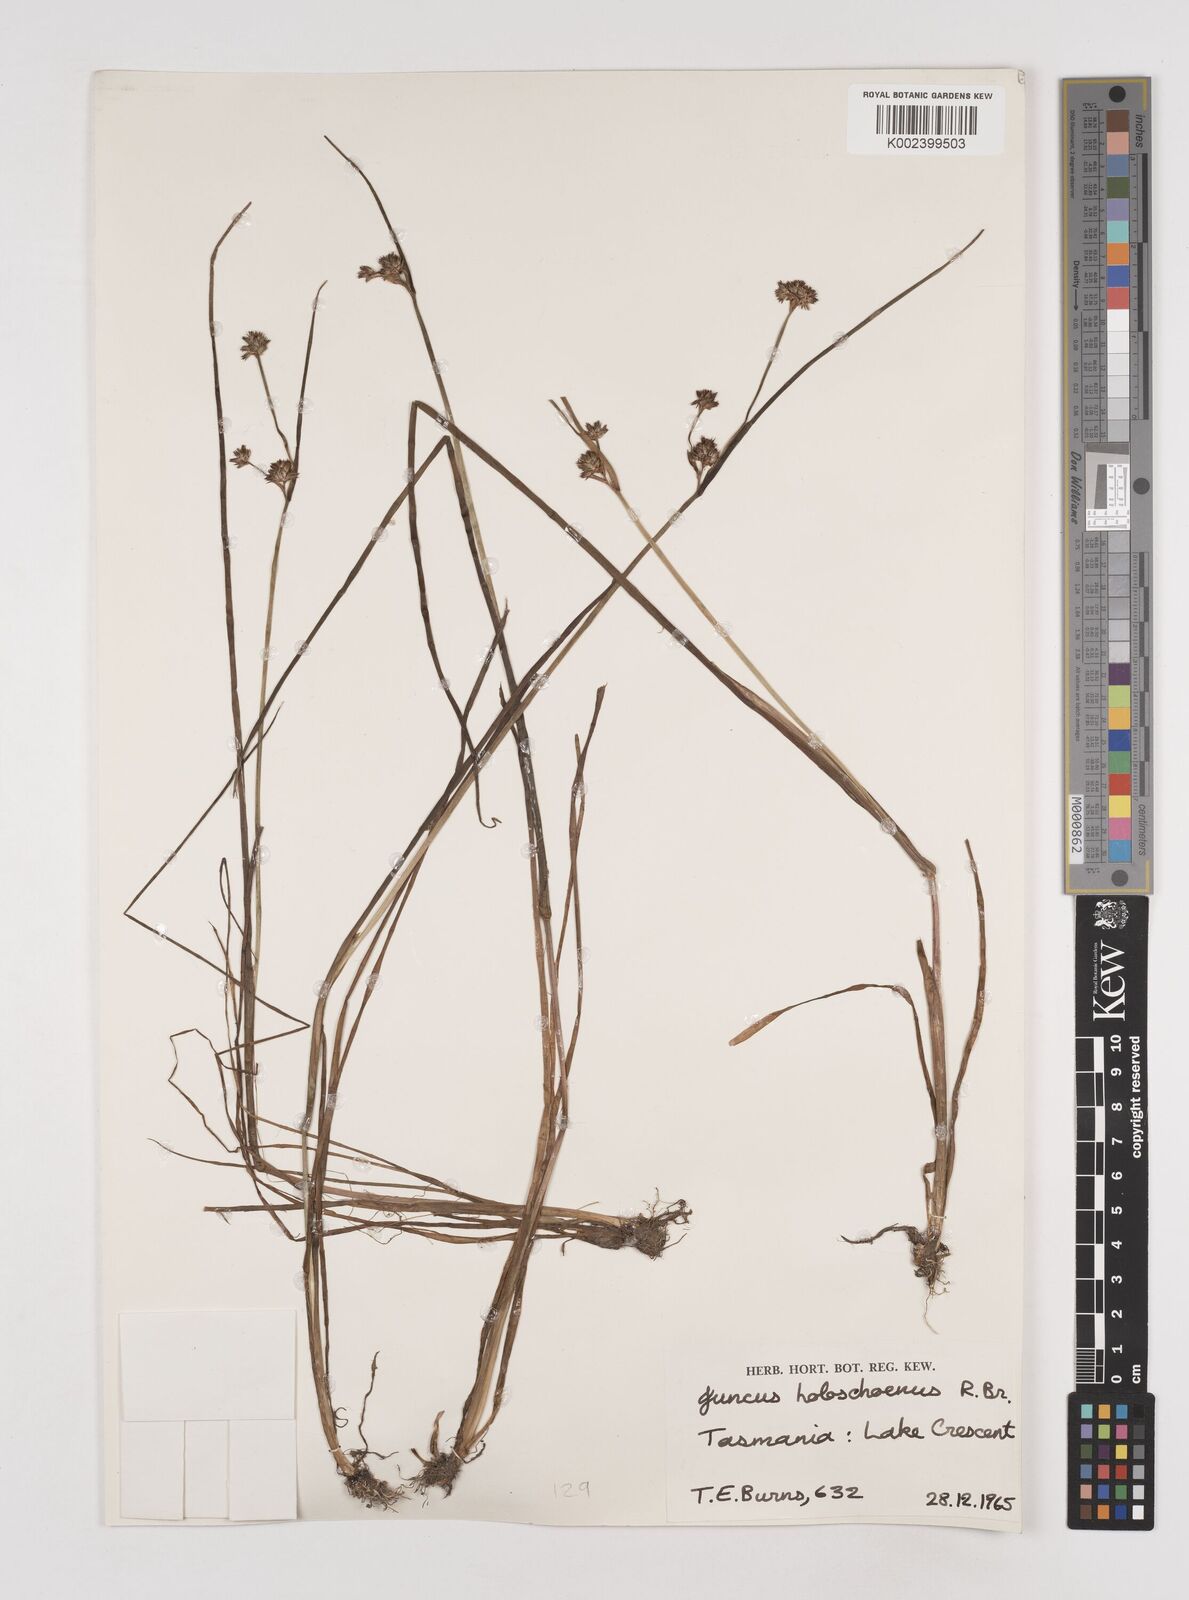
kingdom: Plantae
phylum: Tracheophyta
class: Liliopsida
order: Poales
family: Juncaceae
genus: Juncus
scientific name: Juncus holoschoenus
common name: Joint-leaf rush
